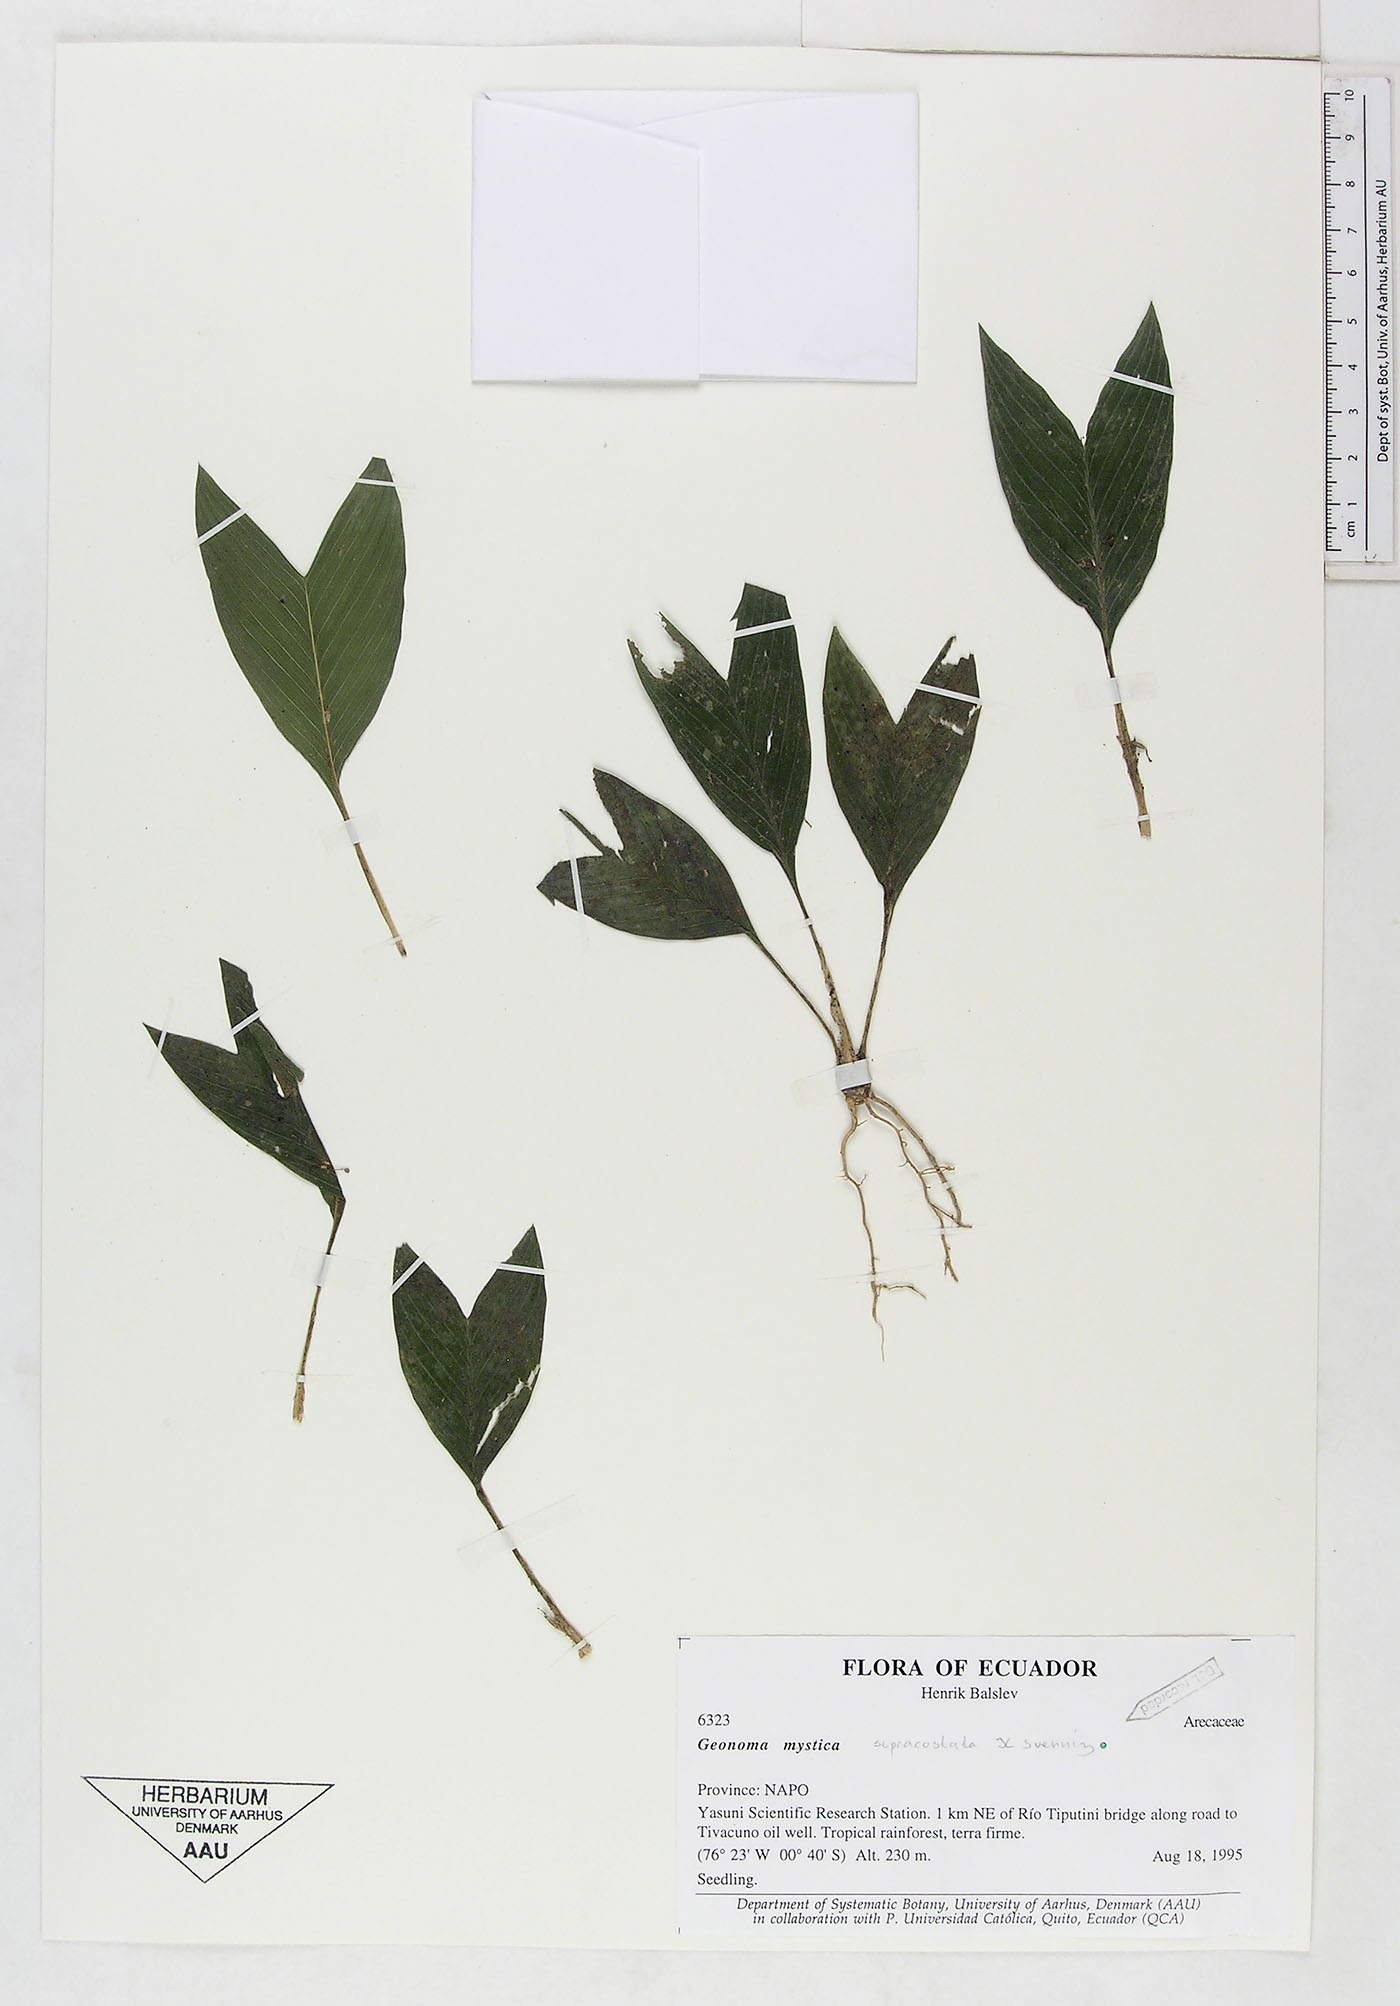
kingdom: Plantae
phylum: Tracheophyta
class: Liliopsida
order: Arecales
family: Arecaceae
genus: Geonoma
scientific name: Geonoma macrostachys
